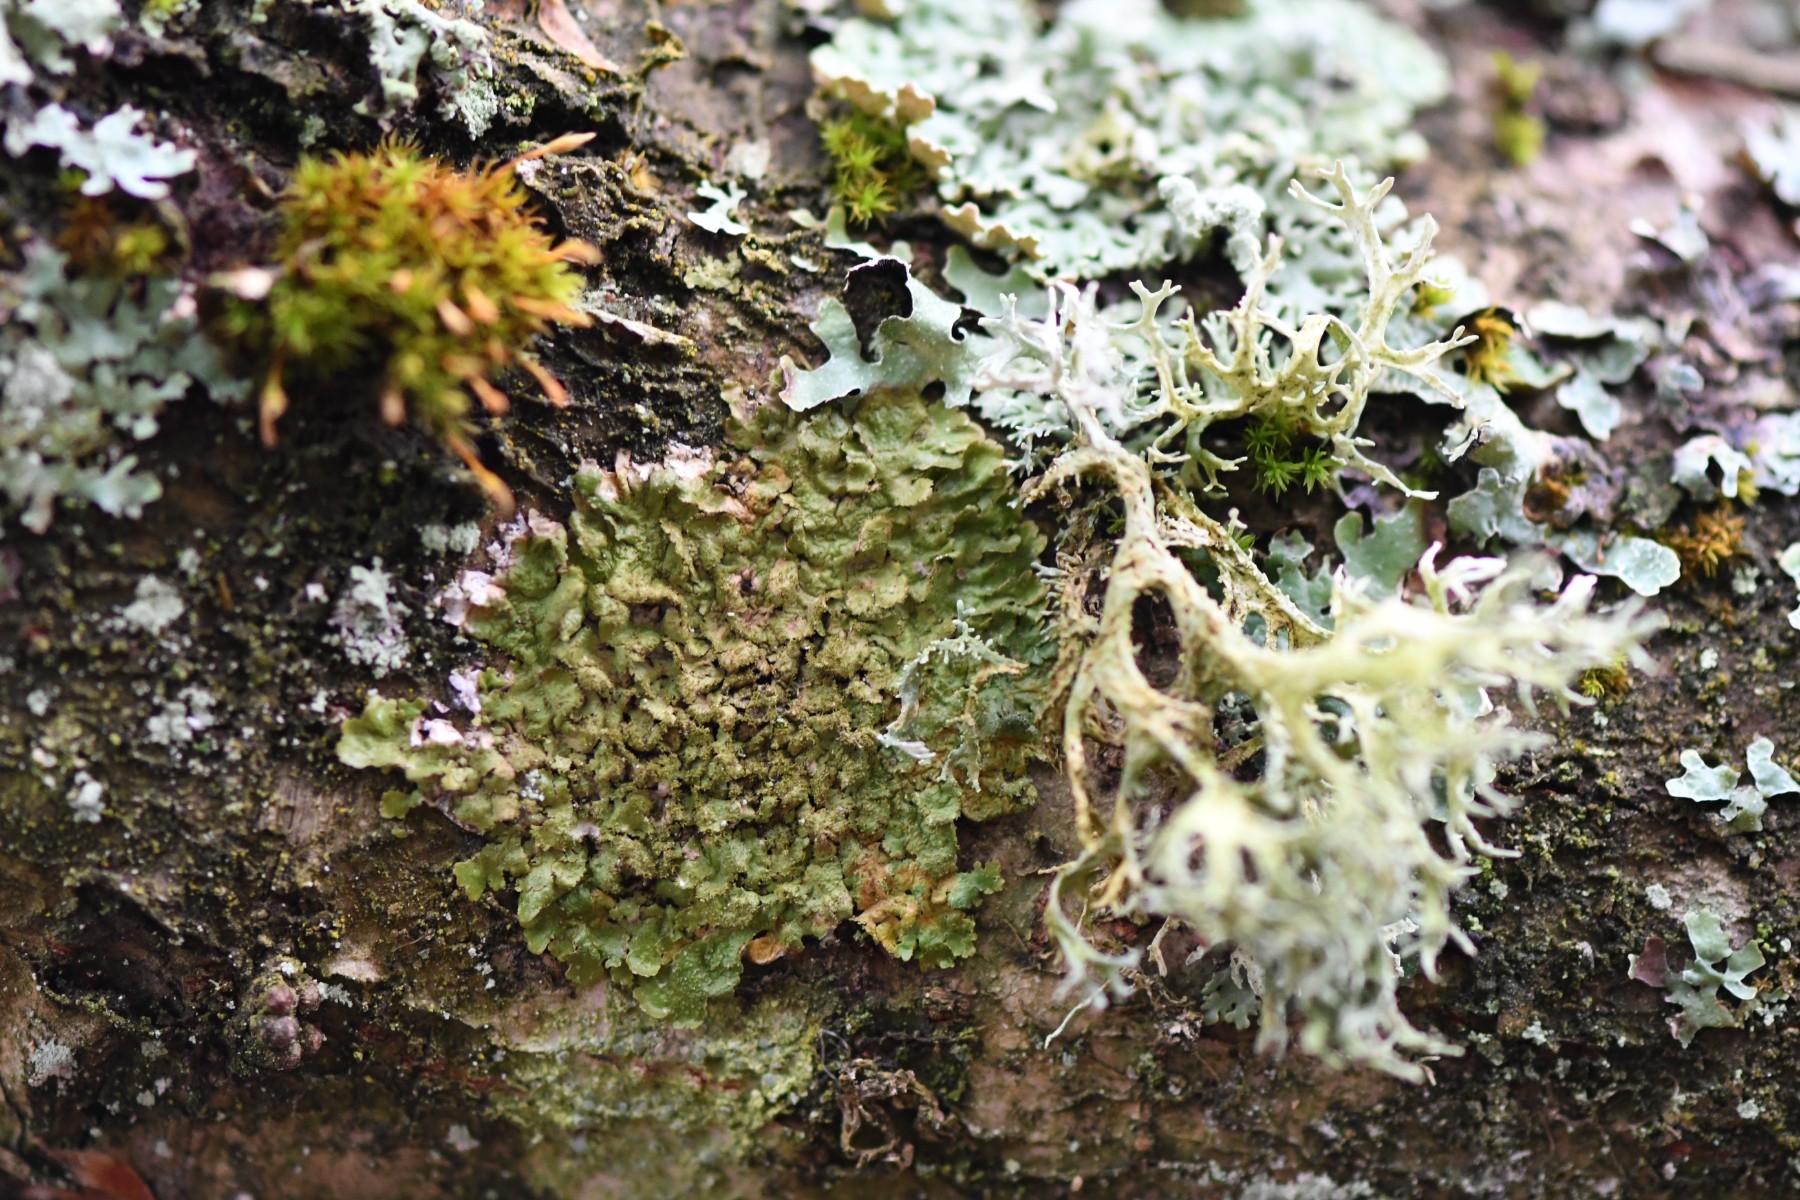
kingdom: Fungi
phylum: Ascomycota
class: Lecanoromycetes
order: Lecanorales
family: Parmeliaceae
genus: Melanelixia
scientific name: Melanelixia glabratula
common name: glinsende skållav
